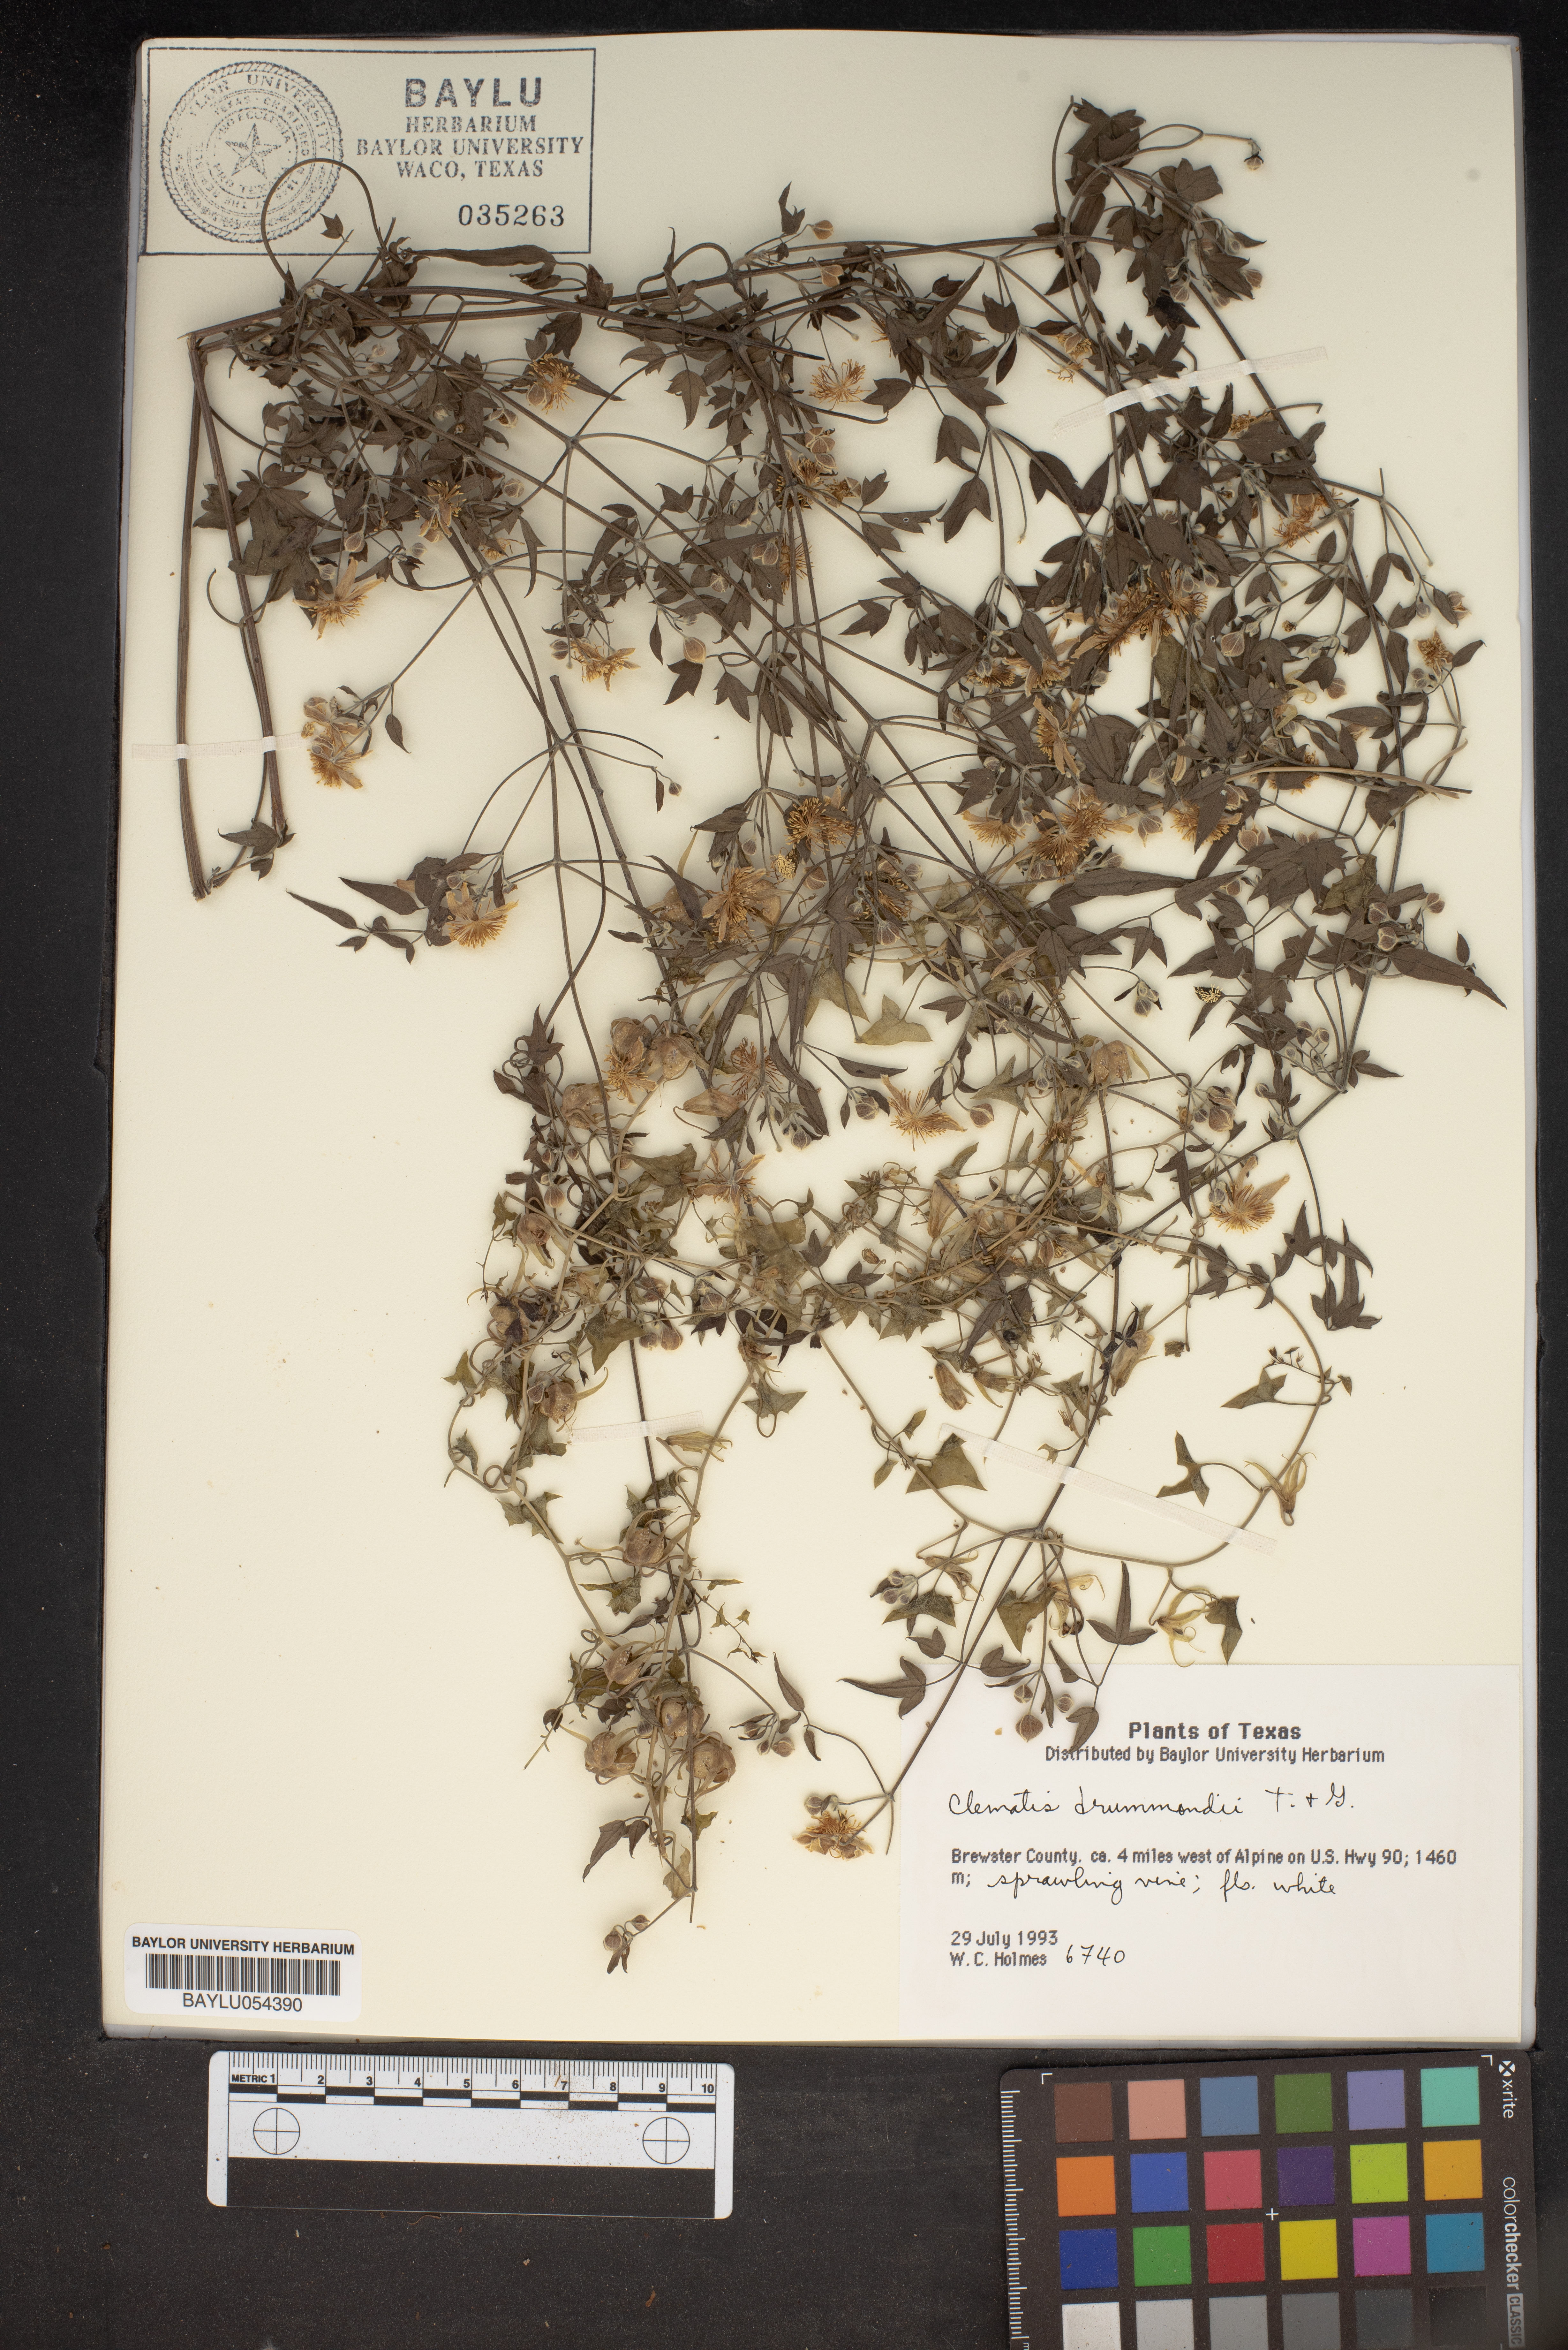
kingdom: Plantae
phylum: Tracheophyta
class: Magnoliopsida
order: Ranunculales
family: Ranunculaceae
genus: Clematis
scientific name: Clematis drummondii
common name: Texas virgin's bower
